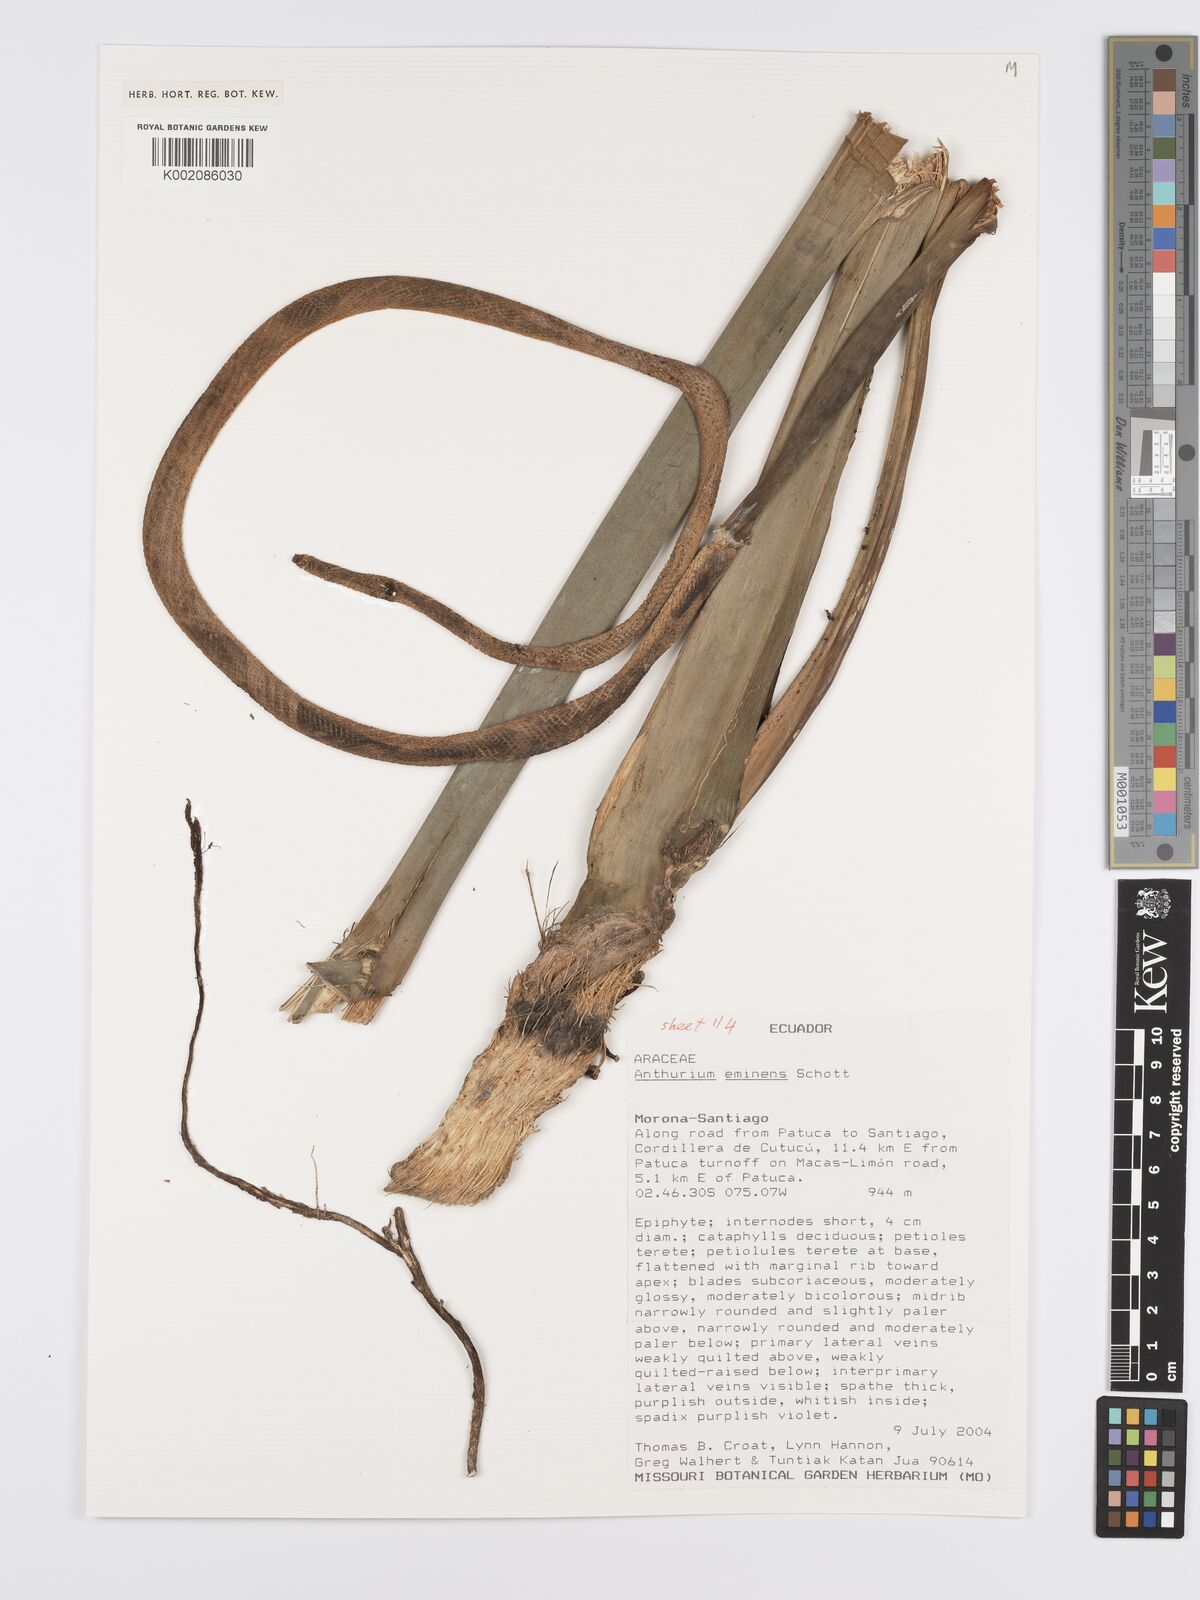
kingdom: Plantae
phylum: Tracheophyta
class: Liliopsida
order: Alismatales
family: Araceae
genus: Anthurium
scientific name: Anthurium eminens
